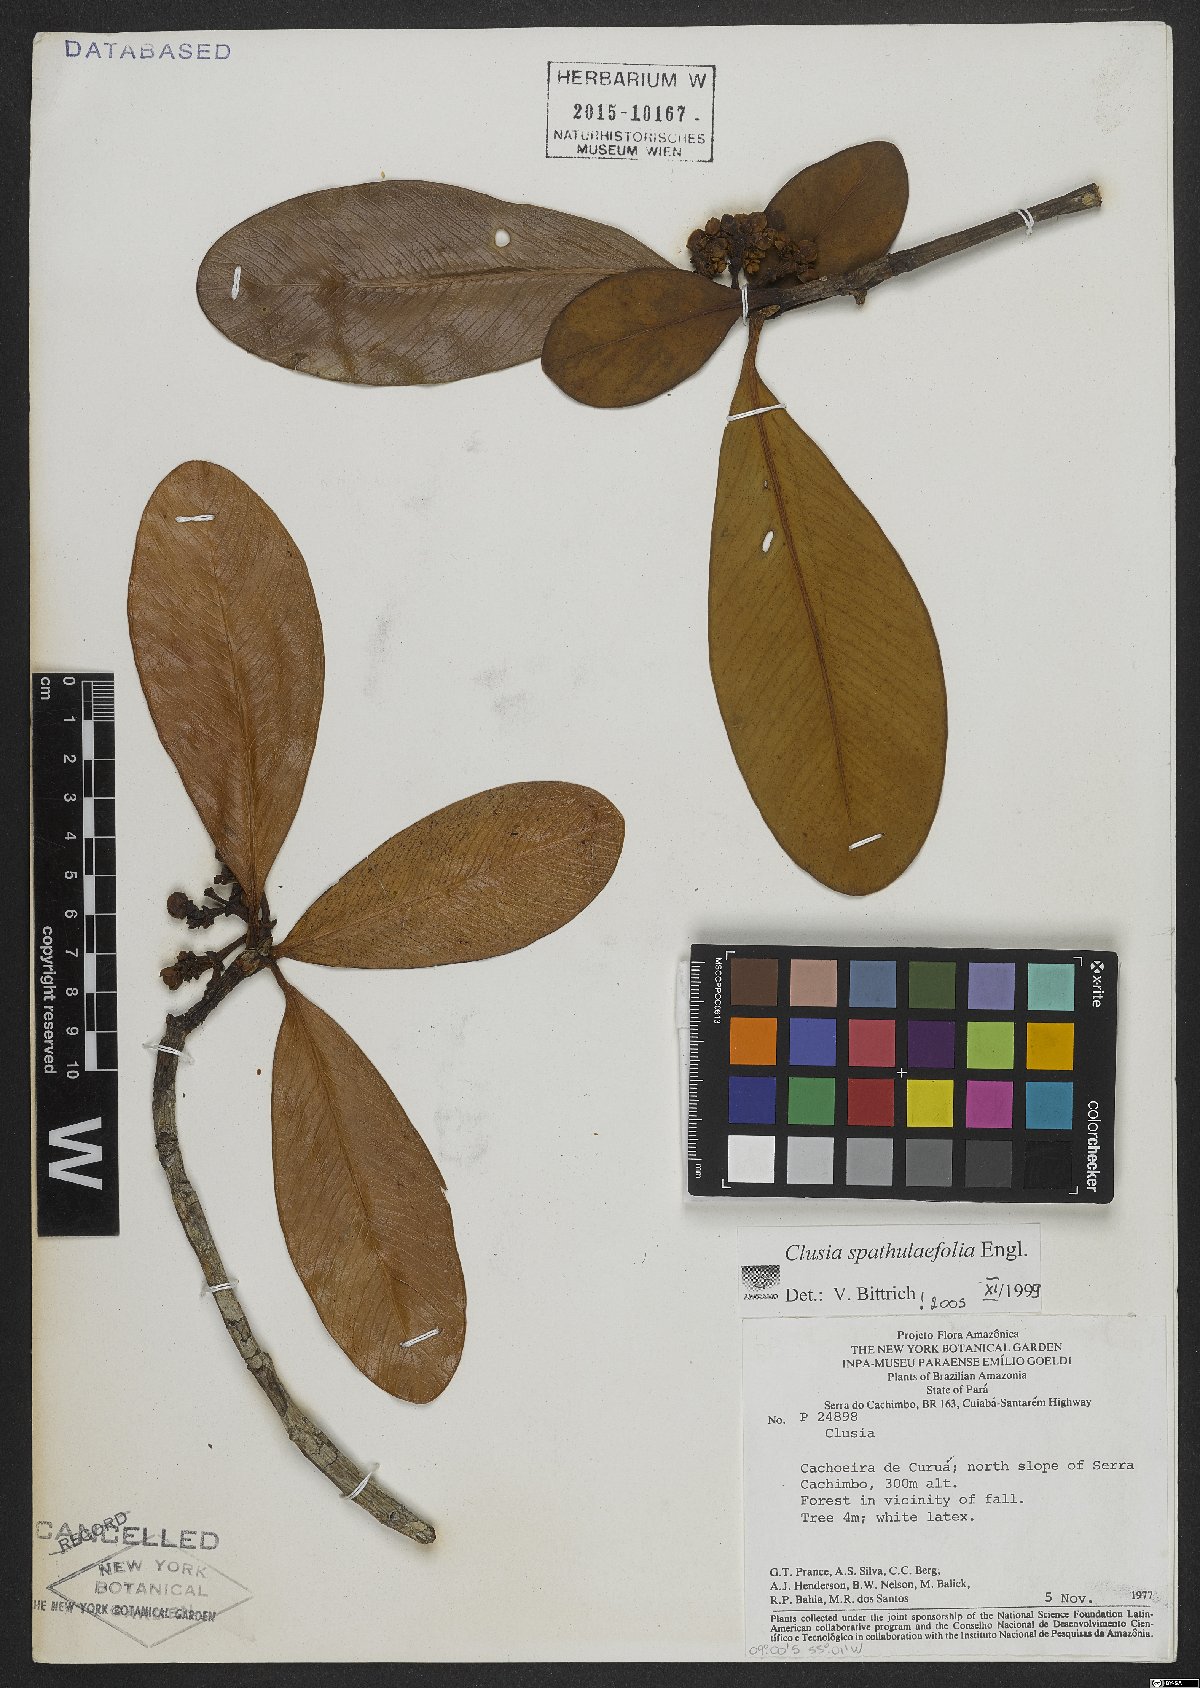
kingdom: Plantae
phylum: Tracheophyta
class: Magnoliopsida
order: Malpighiales
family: Clusiaceae
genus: Clusia
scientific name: Clusia spathulifolia
